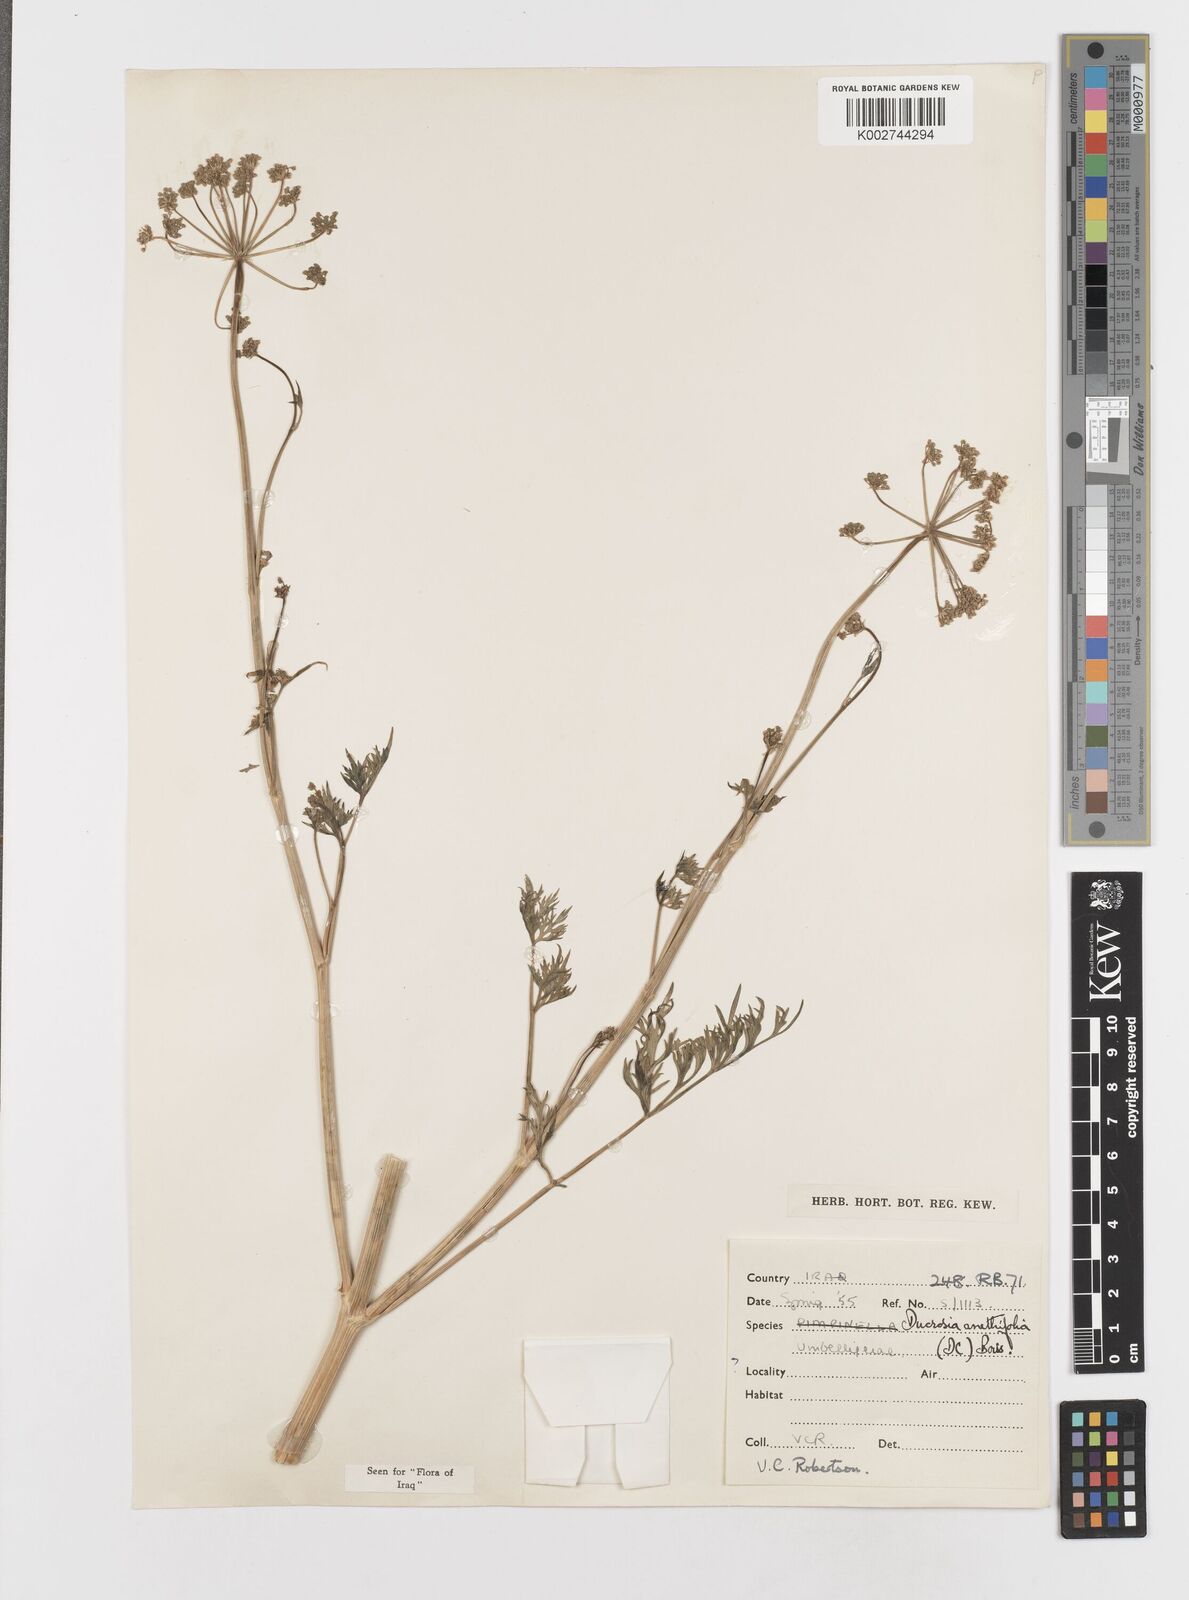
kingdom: Plantae
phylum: Tracheophyta
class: Magnoliopsida
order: Apiales
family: Apiaceae
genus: Ducrosia
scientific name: Ducrosia anethifolia
